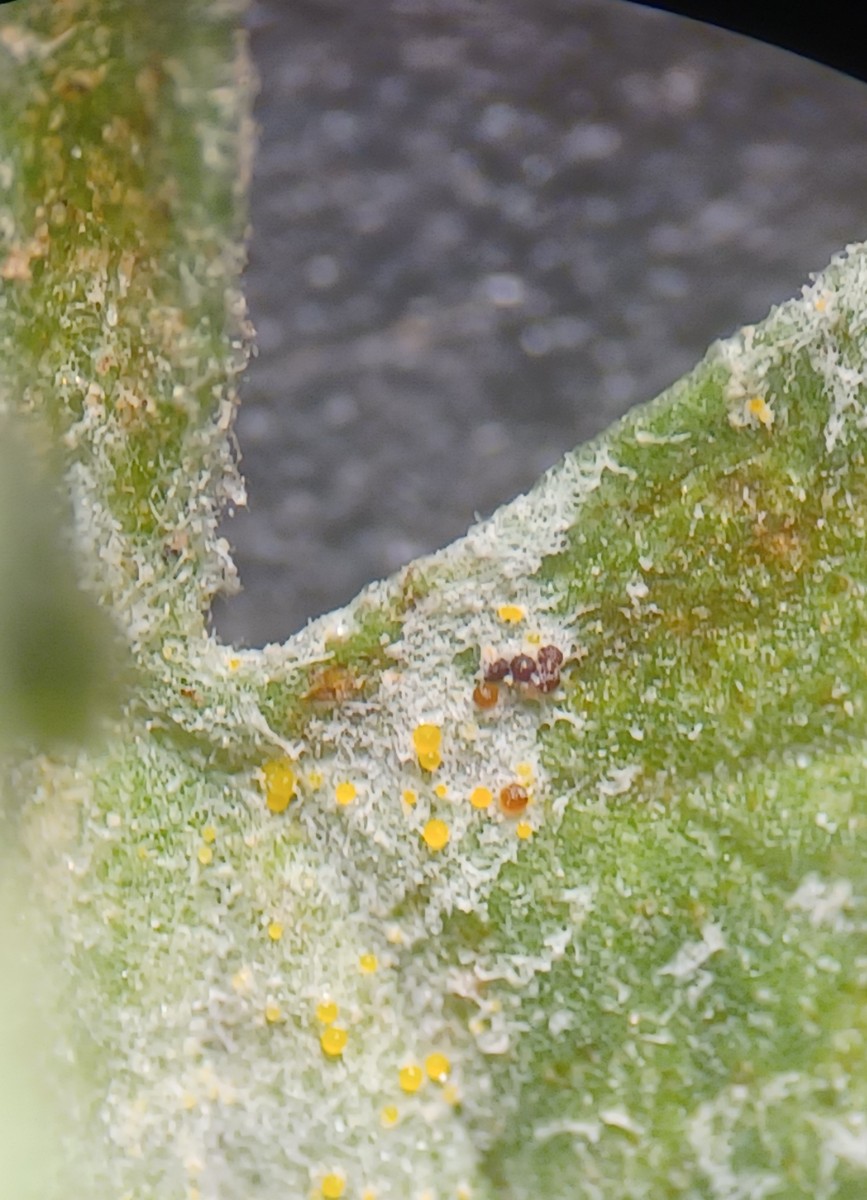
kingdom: Fungi
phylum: Ascomycota
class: Leotiomycetes
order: Helotiales
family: Erysiphaceae
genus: Erysiphe
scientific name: Erysiphe convolvuli
